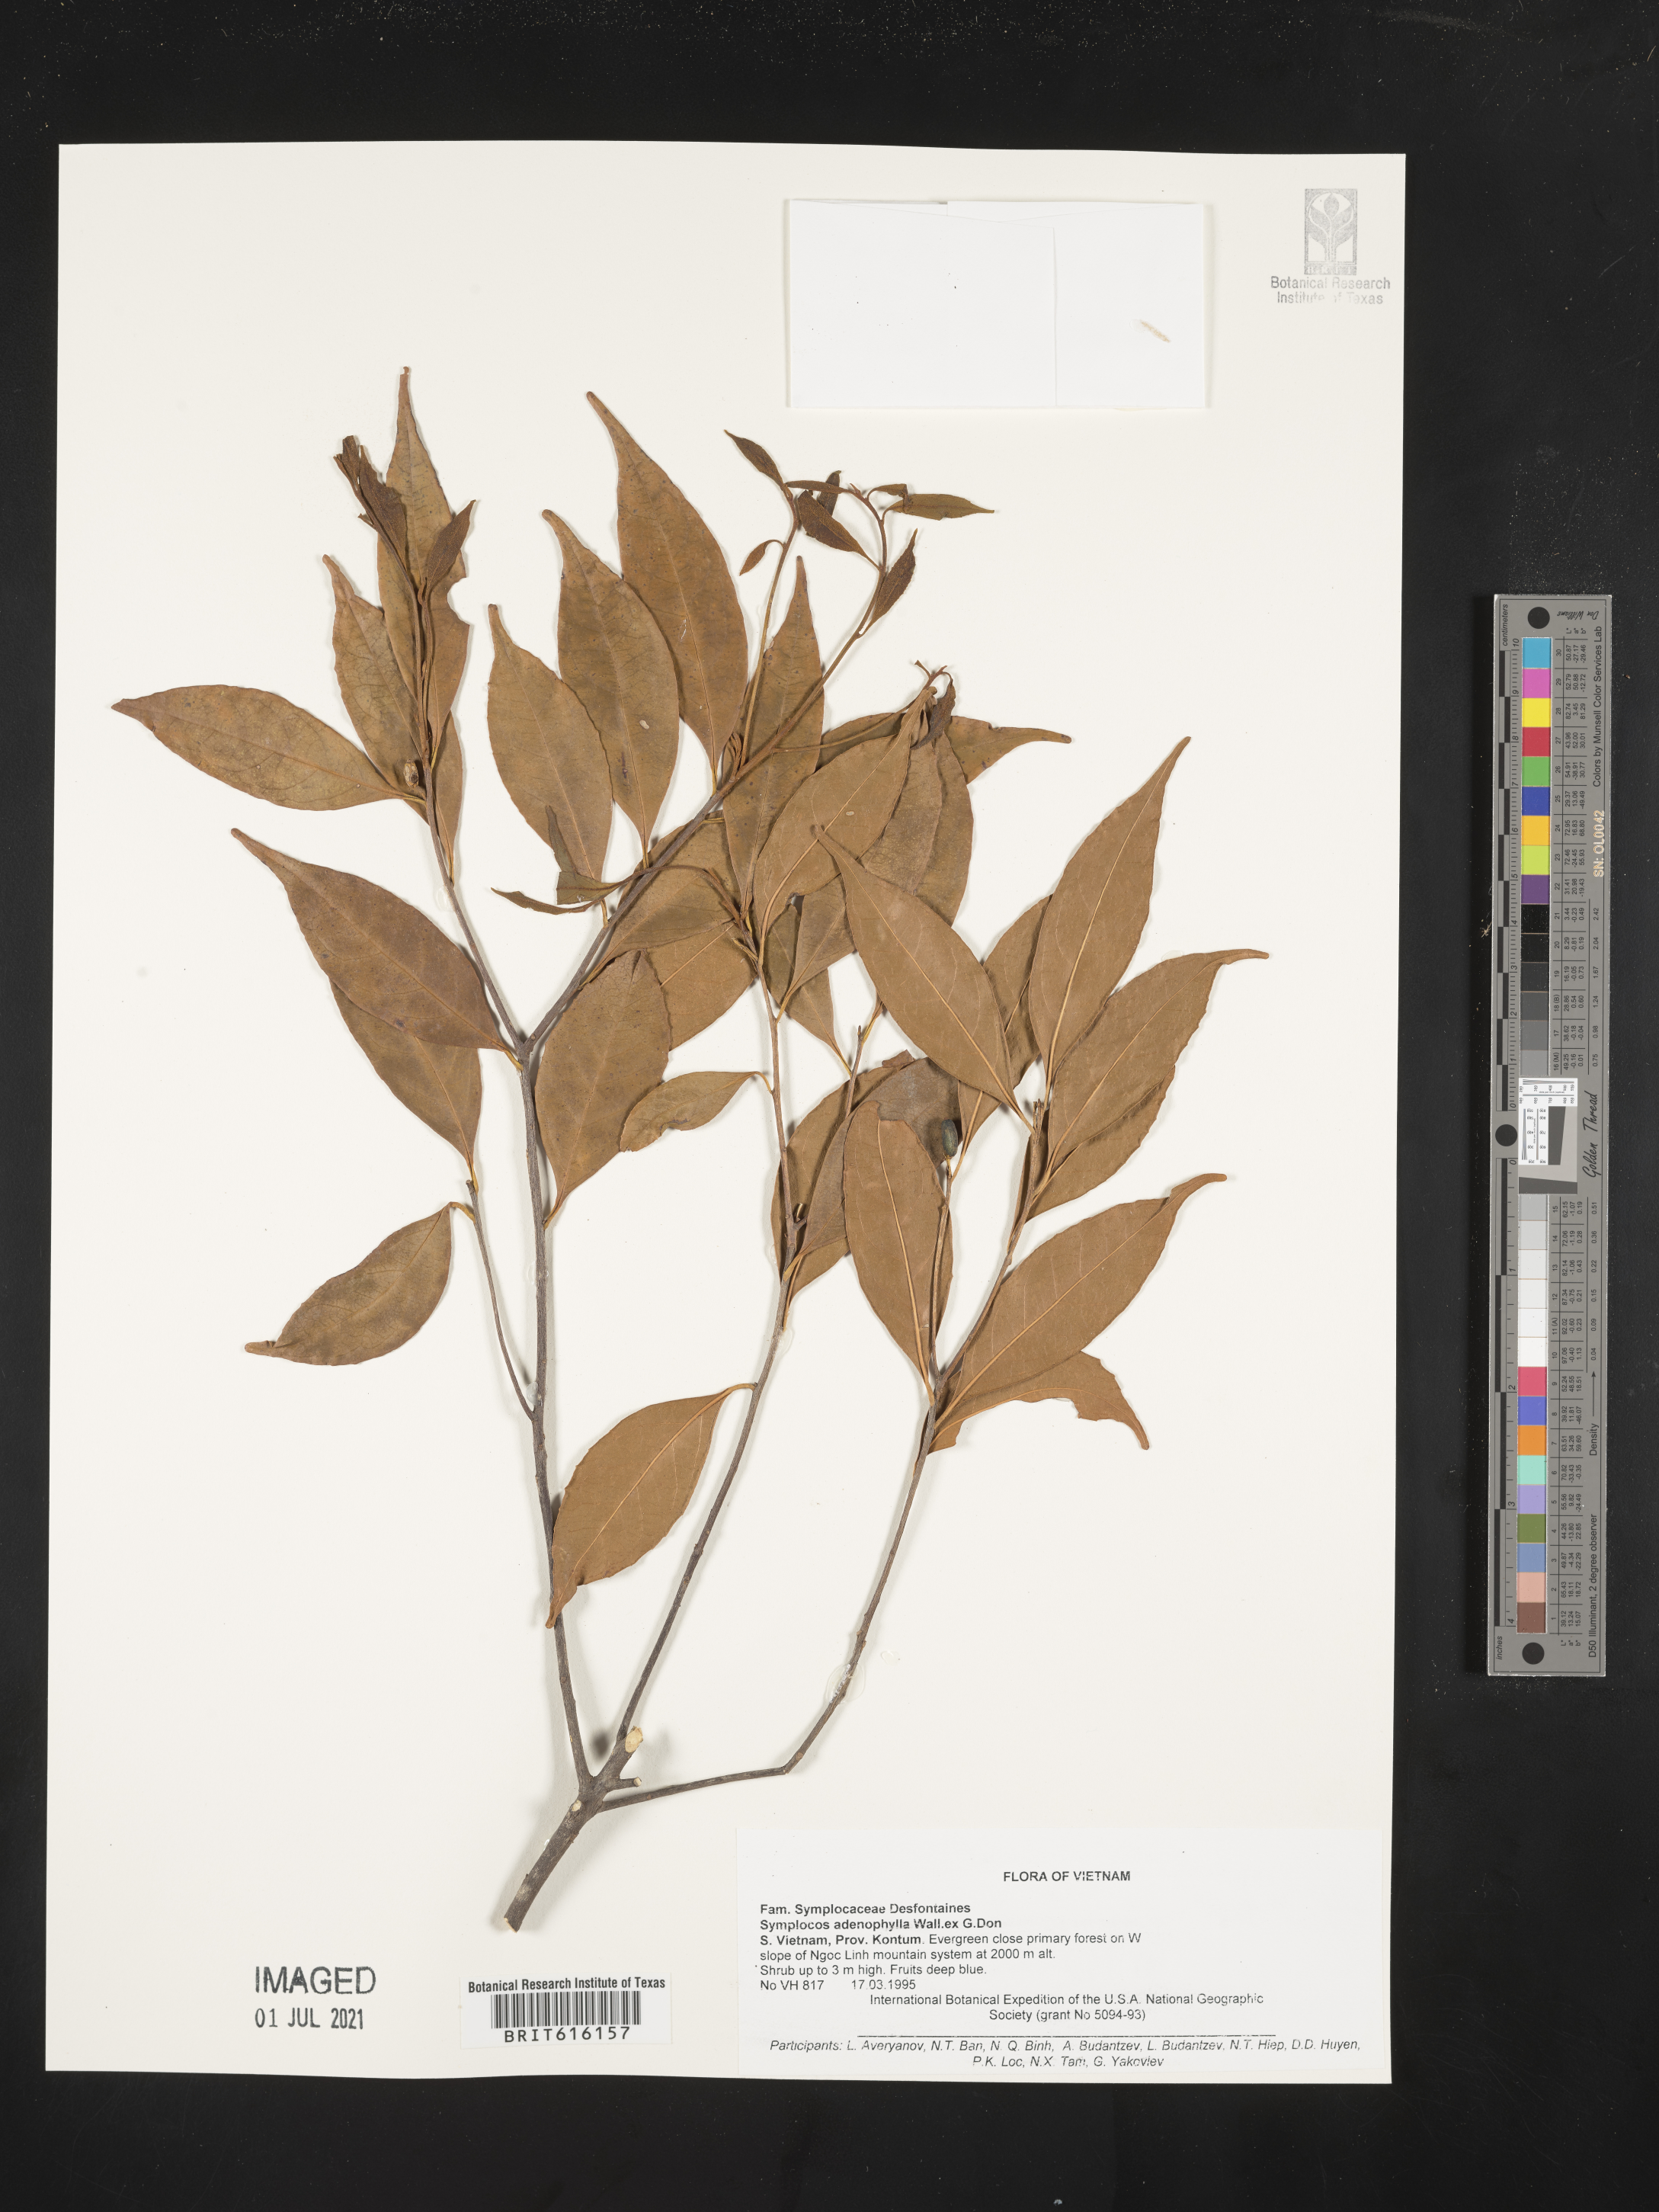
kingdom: Plantae
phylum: Tracheophyta
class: Magnoliopsida
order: Ericales
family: Symplocaceae
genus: Symplocos
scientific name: Symplocos adenophylla
